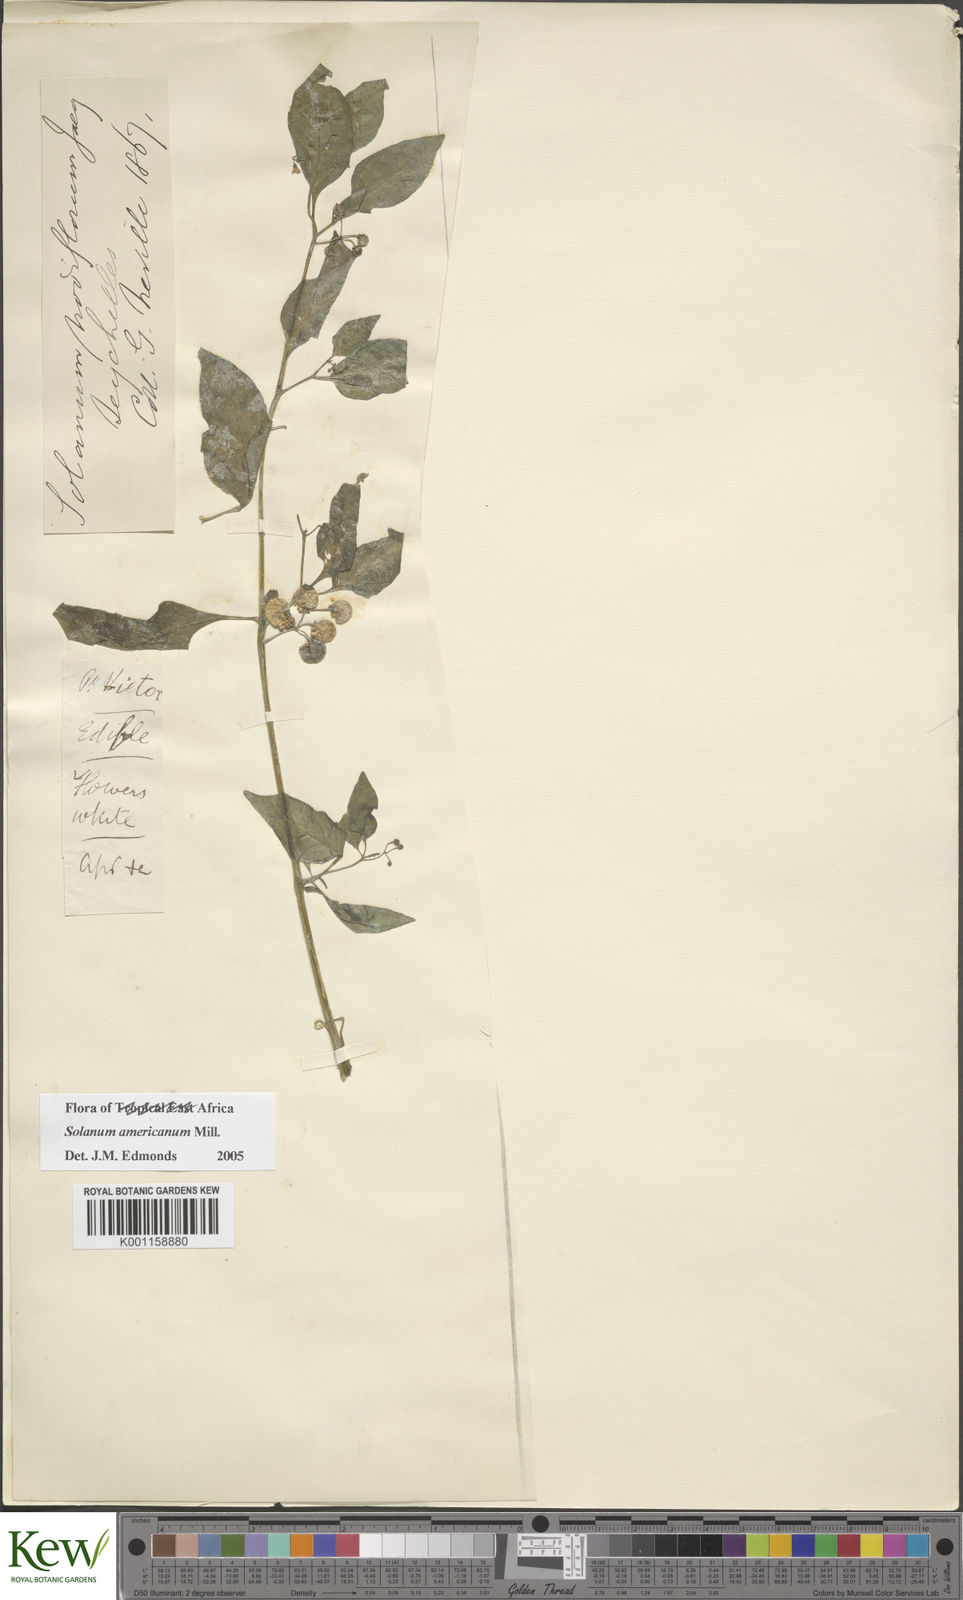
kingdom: Plantae
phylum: Tracheophyta
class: Magnoliopsida
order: Solanales
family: Solanaceae
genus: Solanum
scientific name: Solanum americanum
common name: American black nightshade
